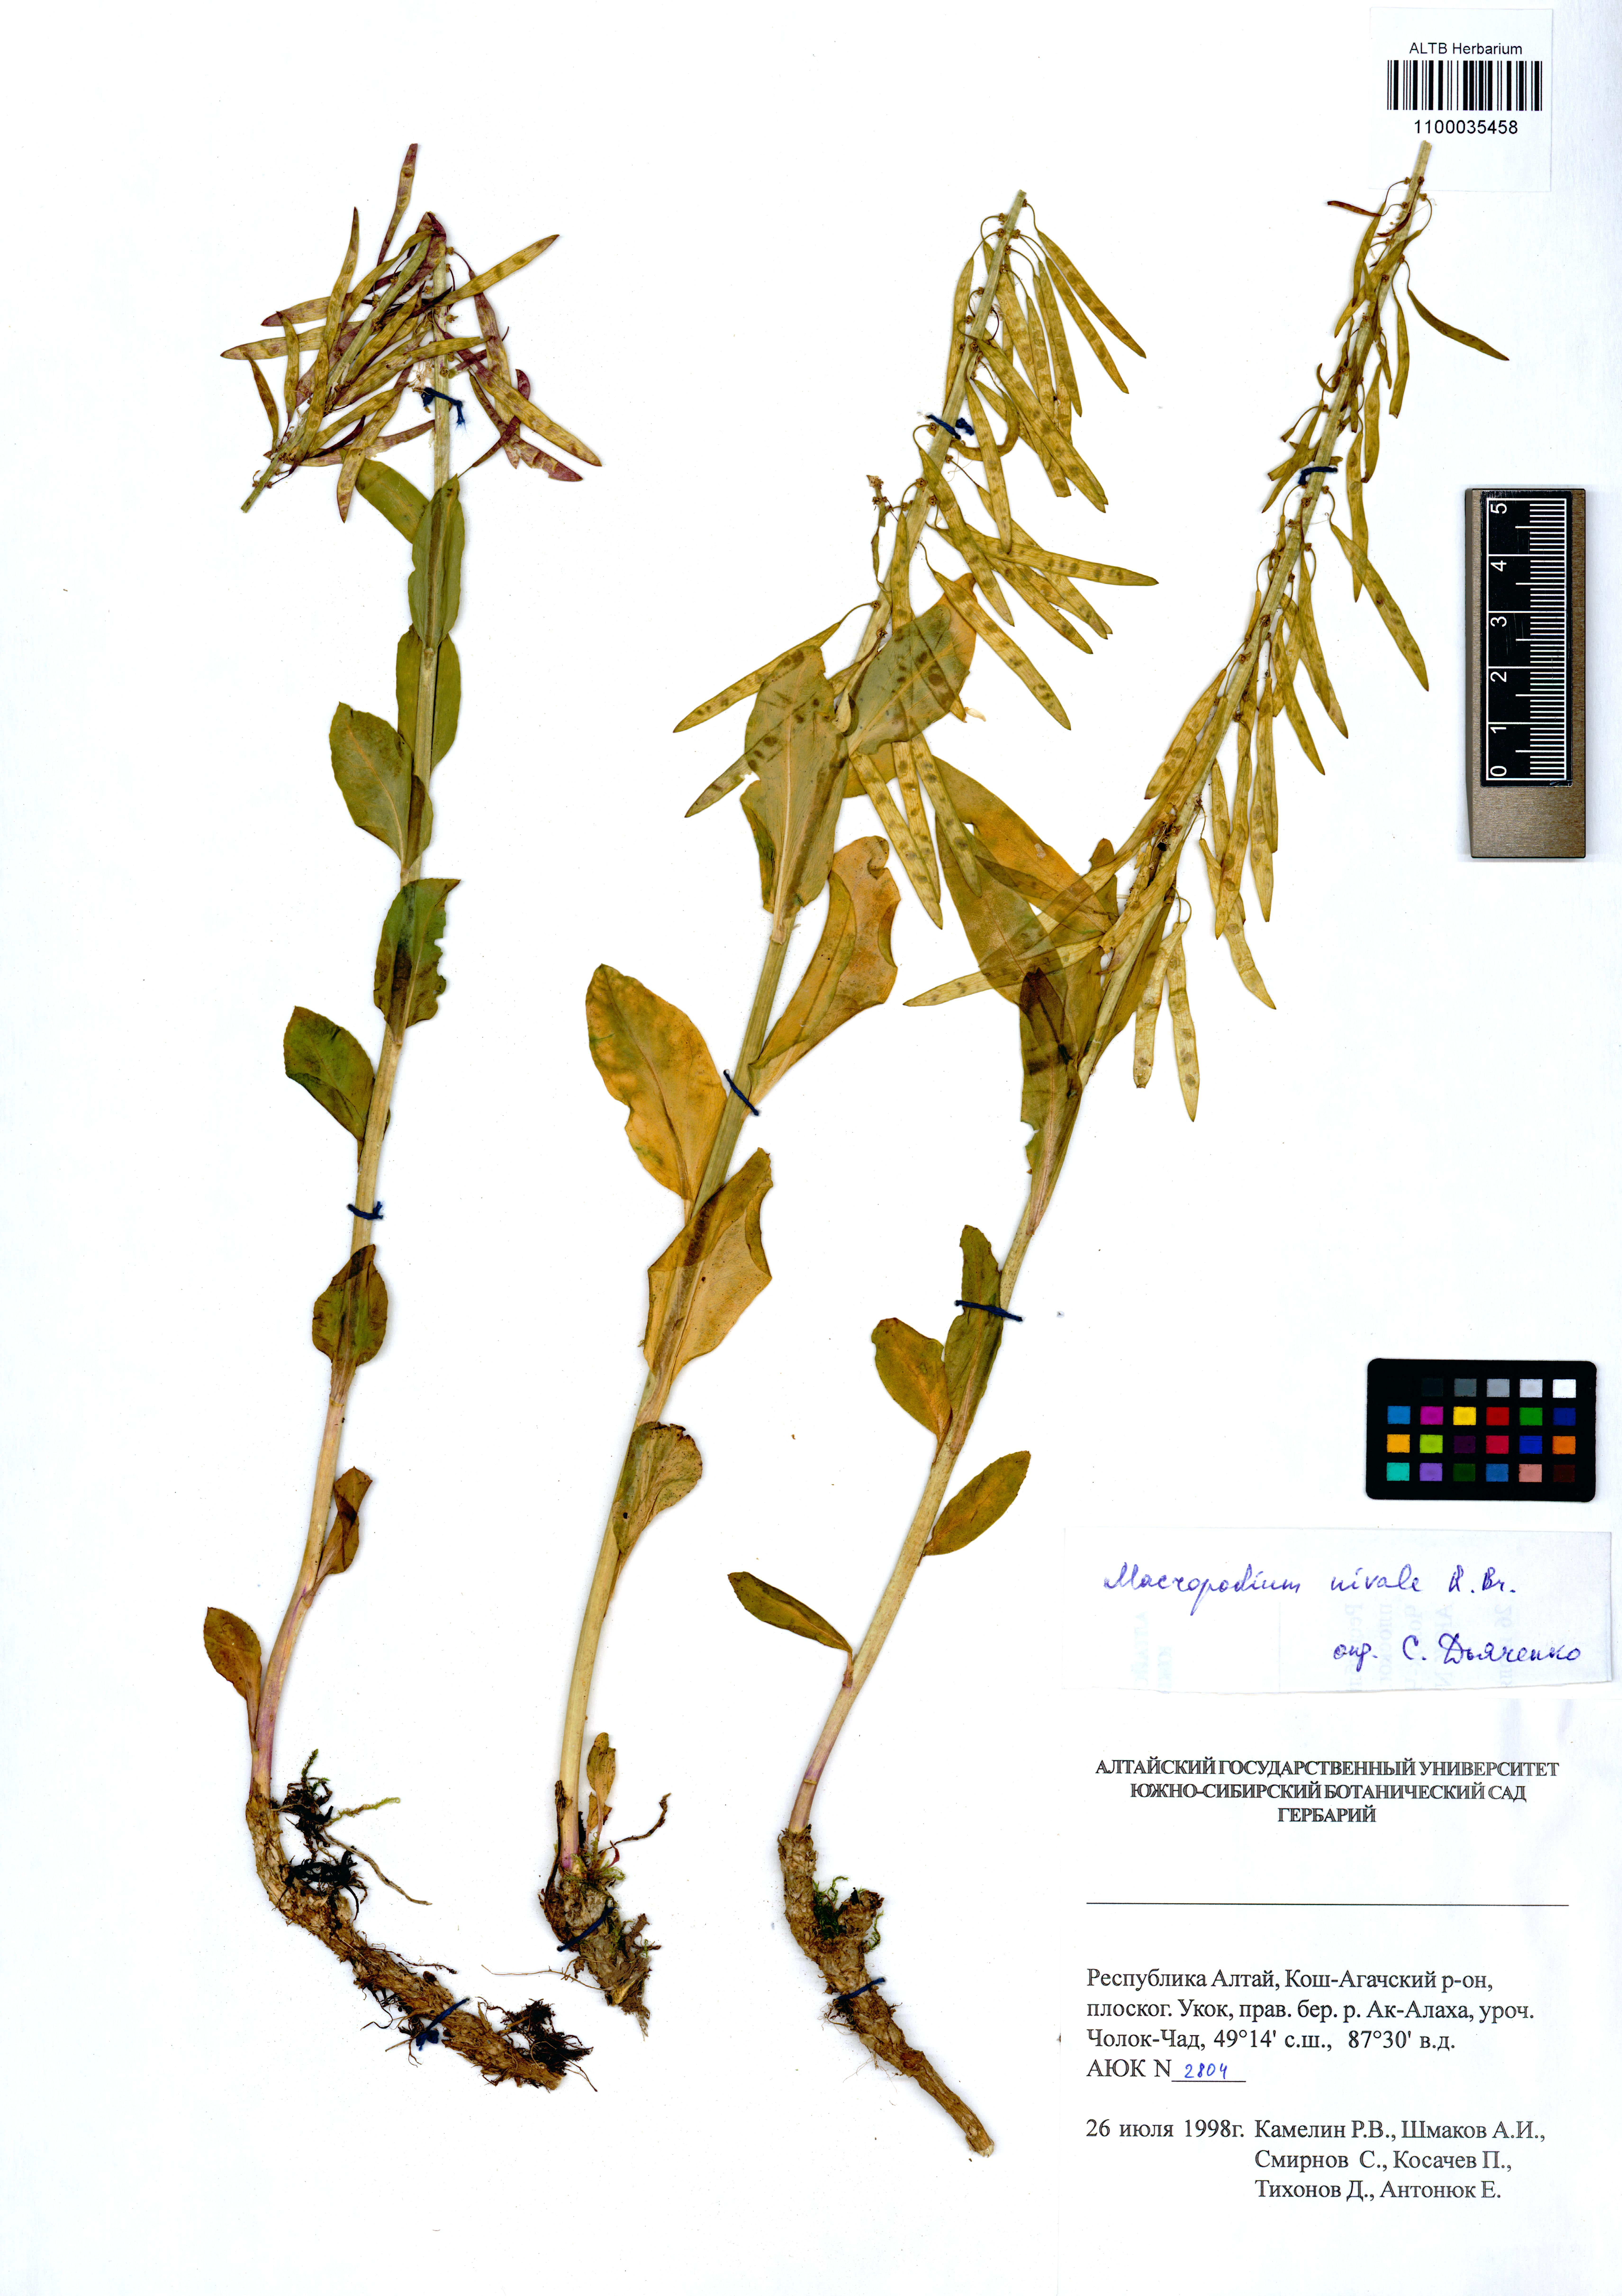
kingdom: Plantae
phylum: Tracheophyta
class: Magnoliopsida
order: Brassicales
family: Brassicaceae
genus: Macropodium
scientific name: Macropodium nivale
